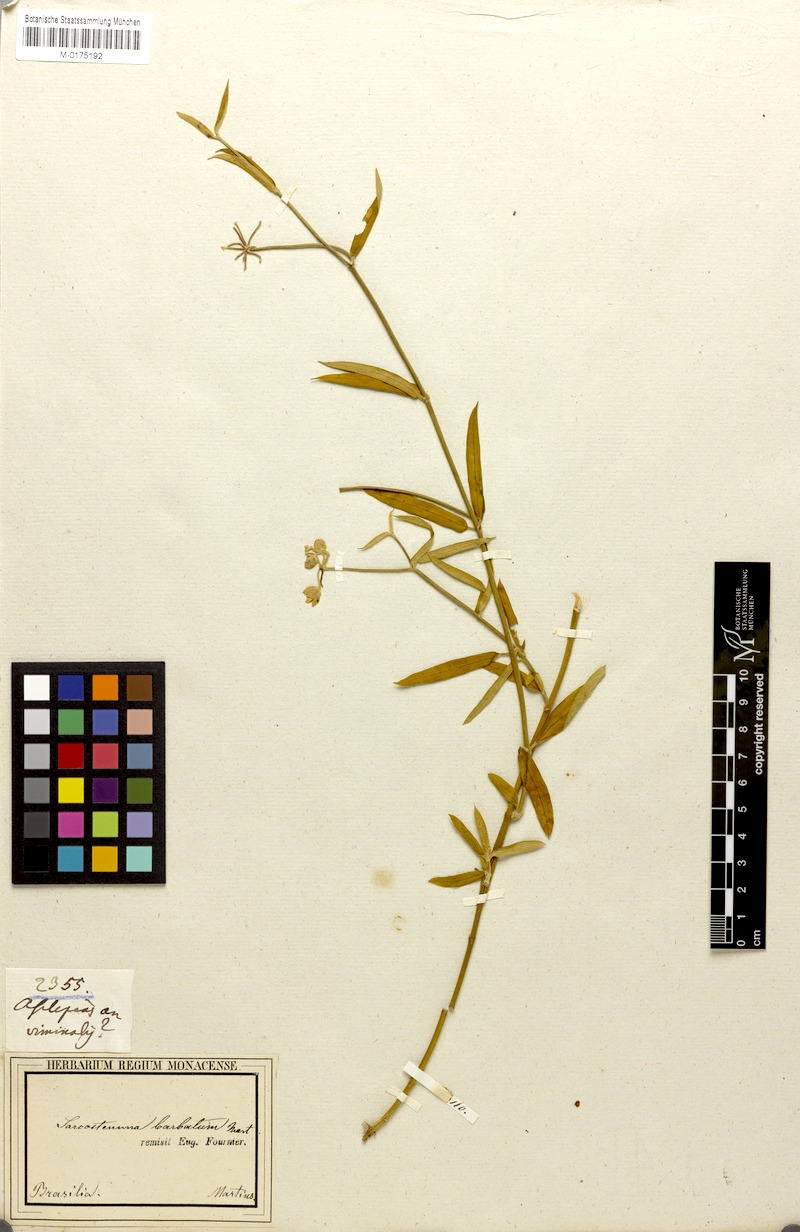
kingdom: Plantae
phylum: Tracheophyta
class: Magnoliopsida
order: Gentianales
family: Apocynaceae
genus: Funastrum
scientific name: Funastrum clausum
